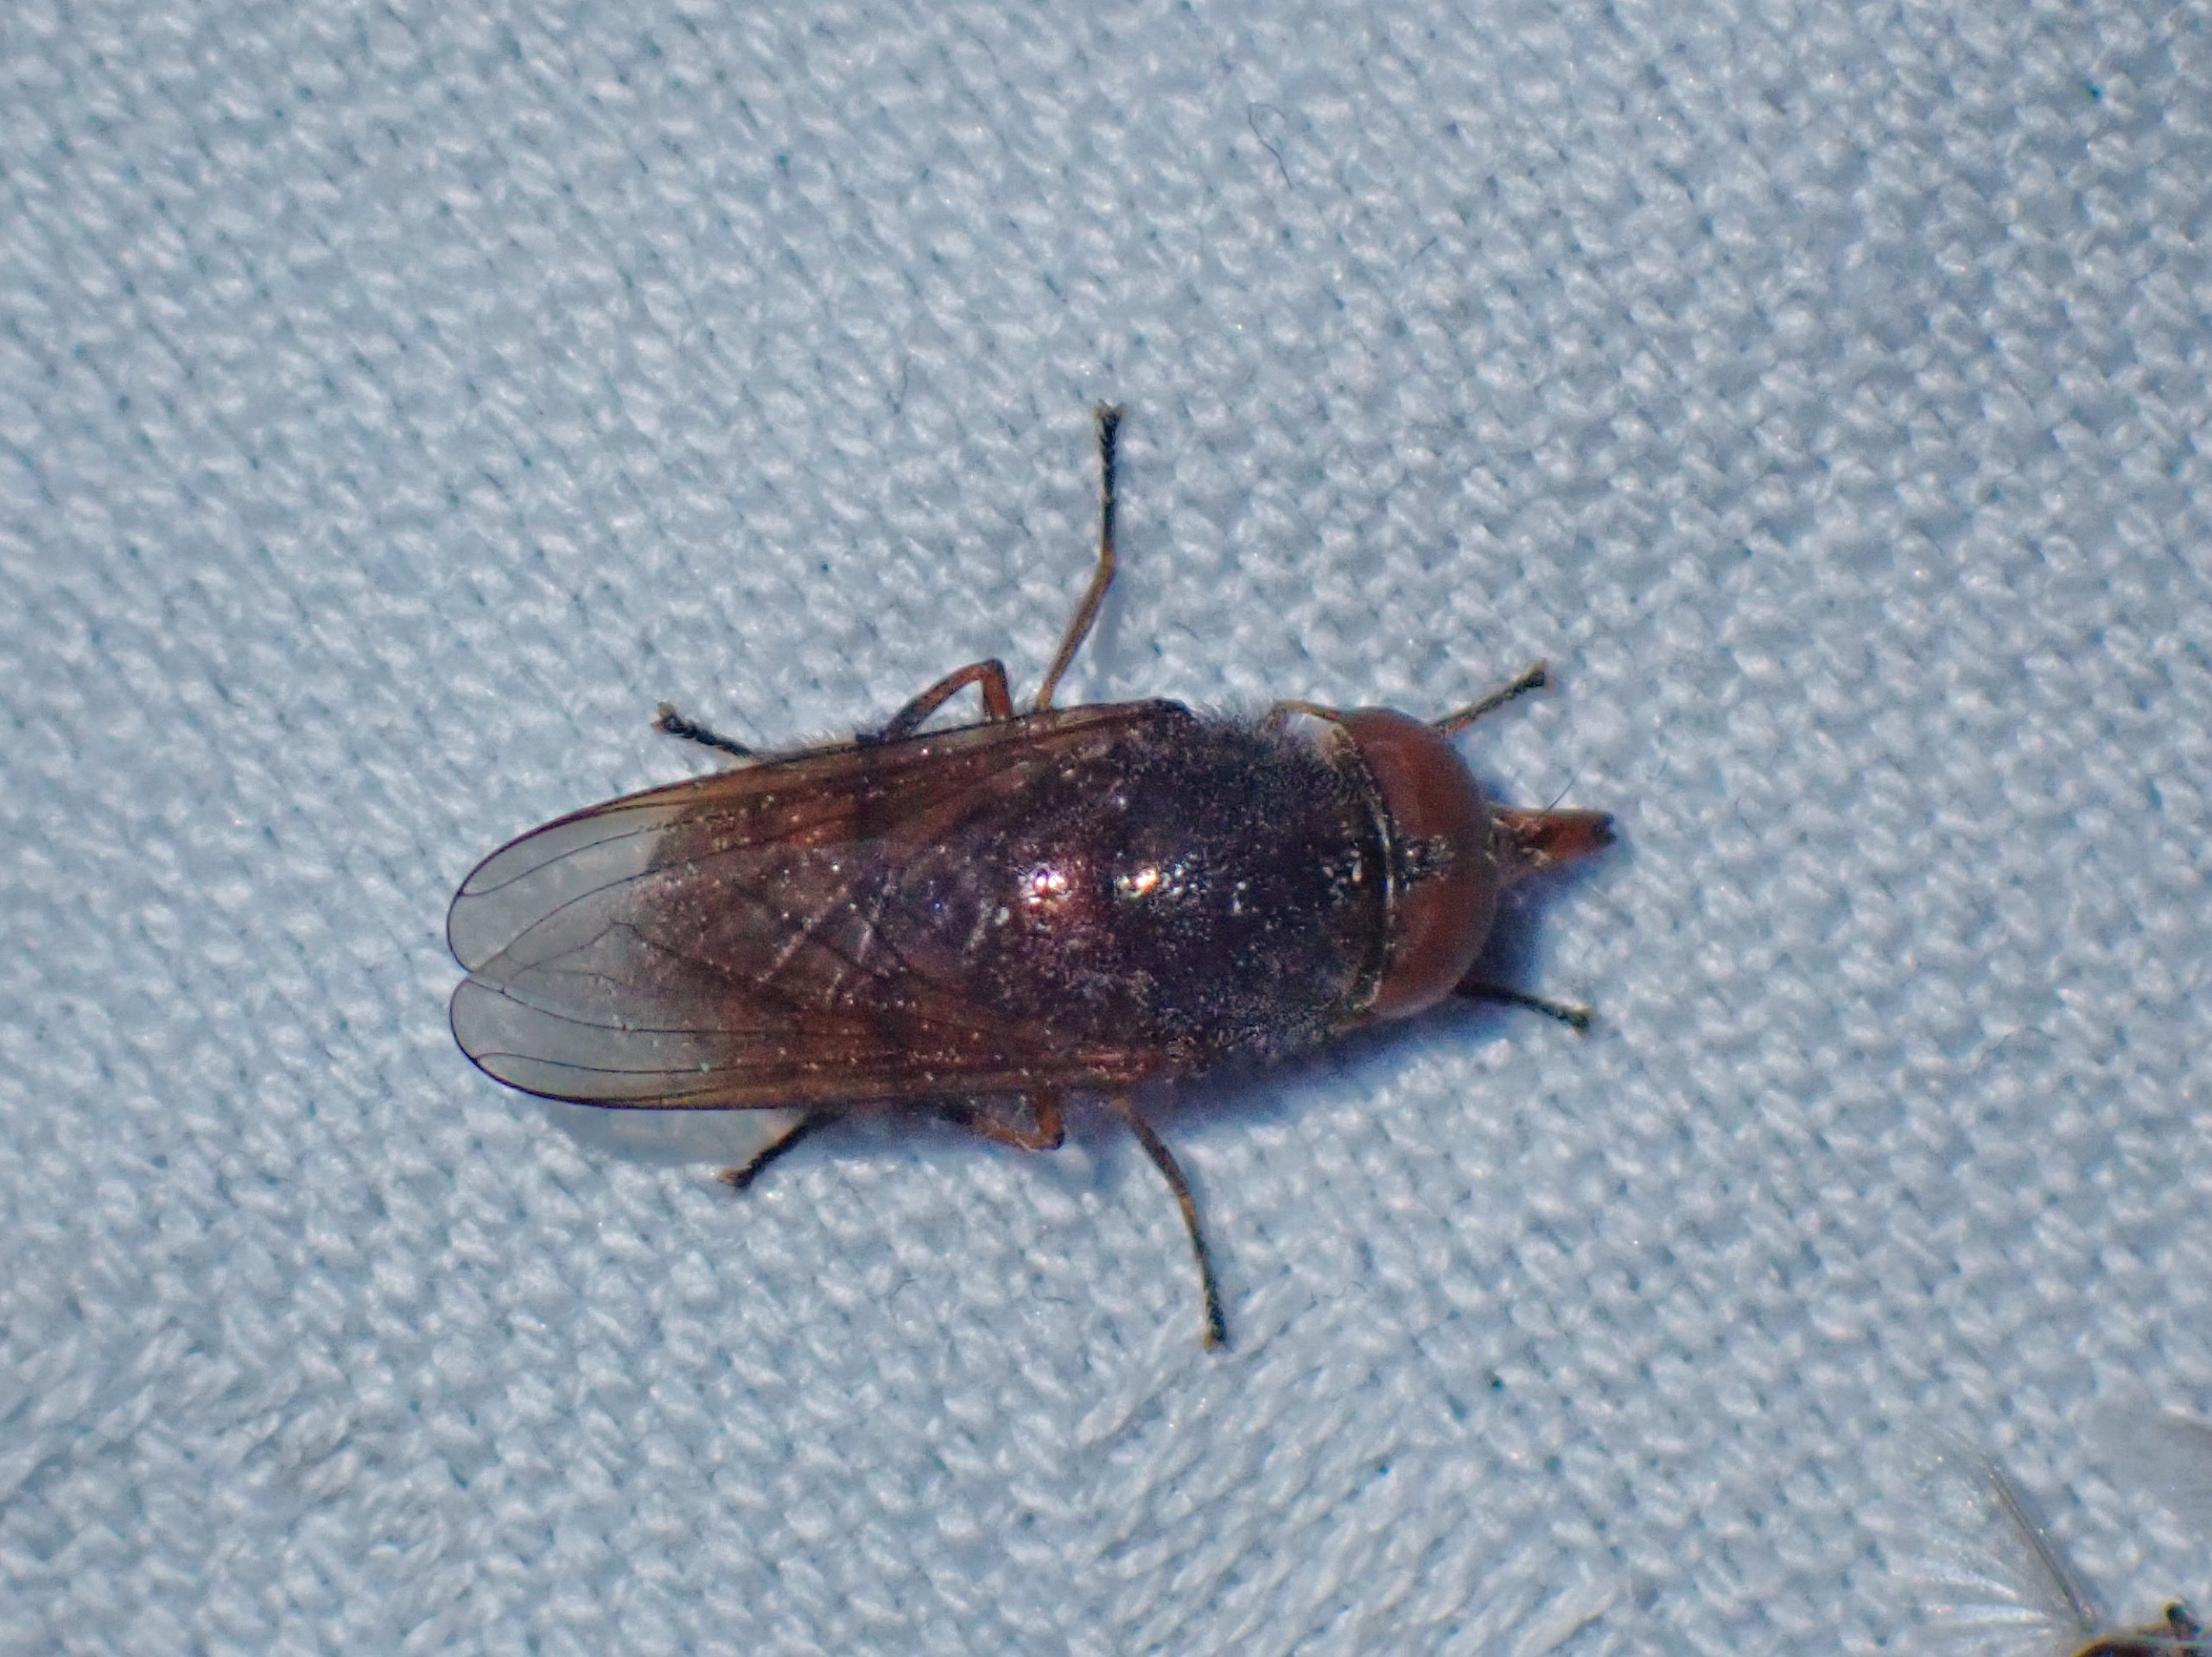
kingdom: Animalia
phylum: Arthropoda
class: Insecta
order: Diptera
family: Syrphidae
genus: Rhingia
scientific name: Rhingia campestris
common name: Mark-snabelsvirreflue
